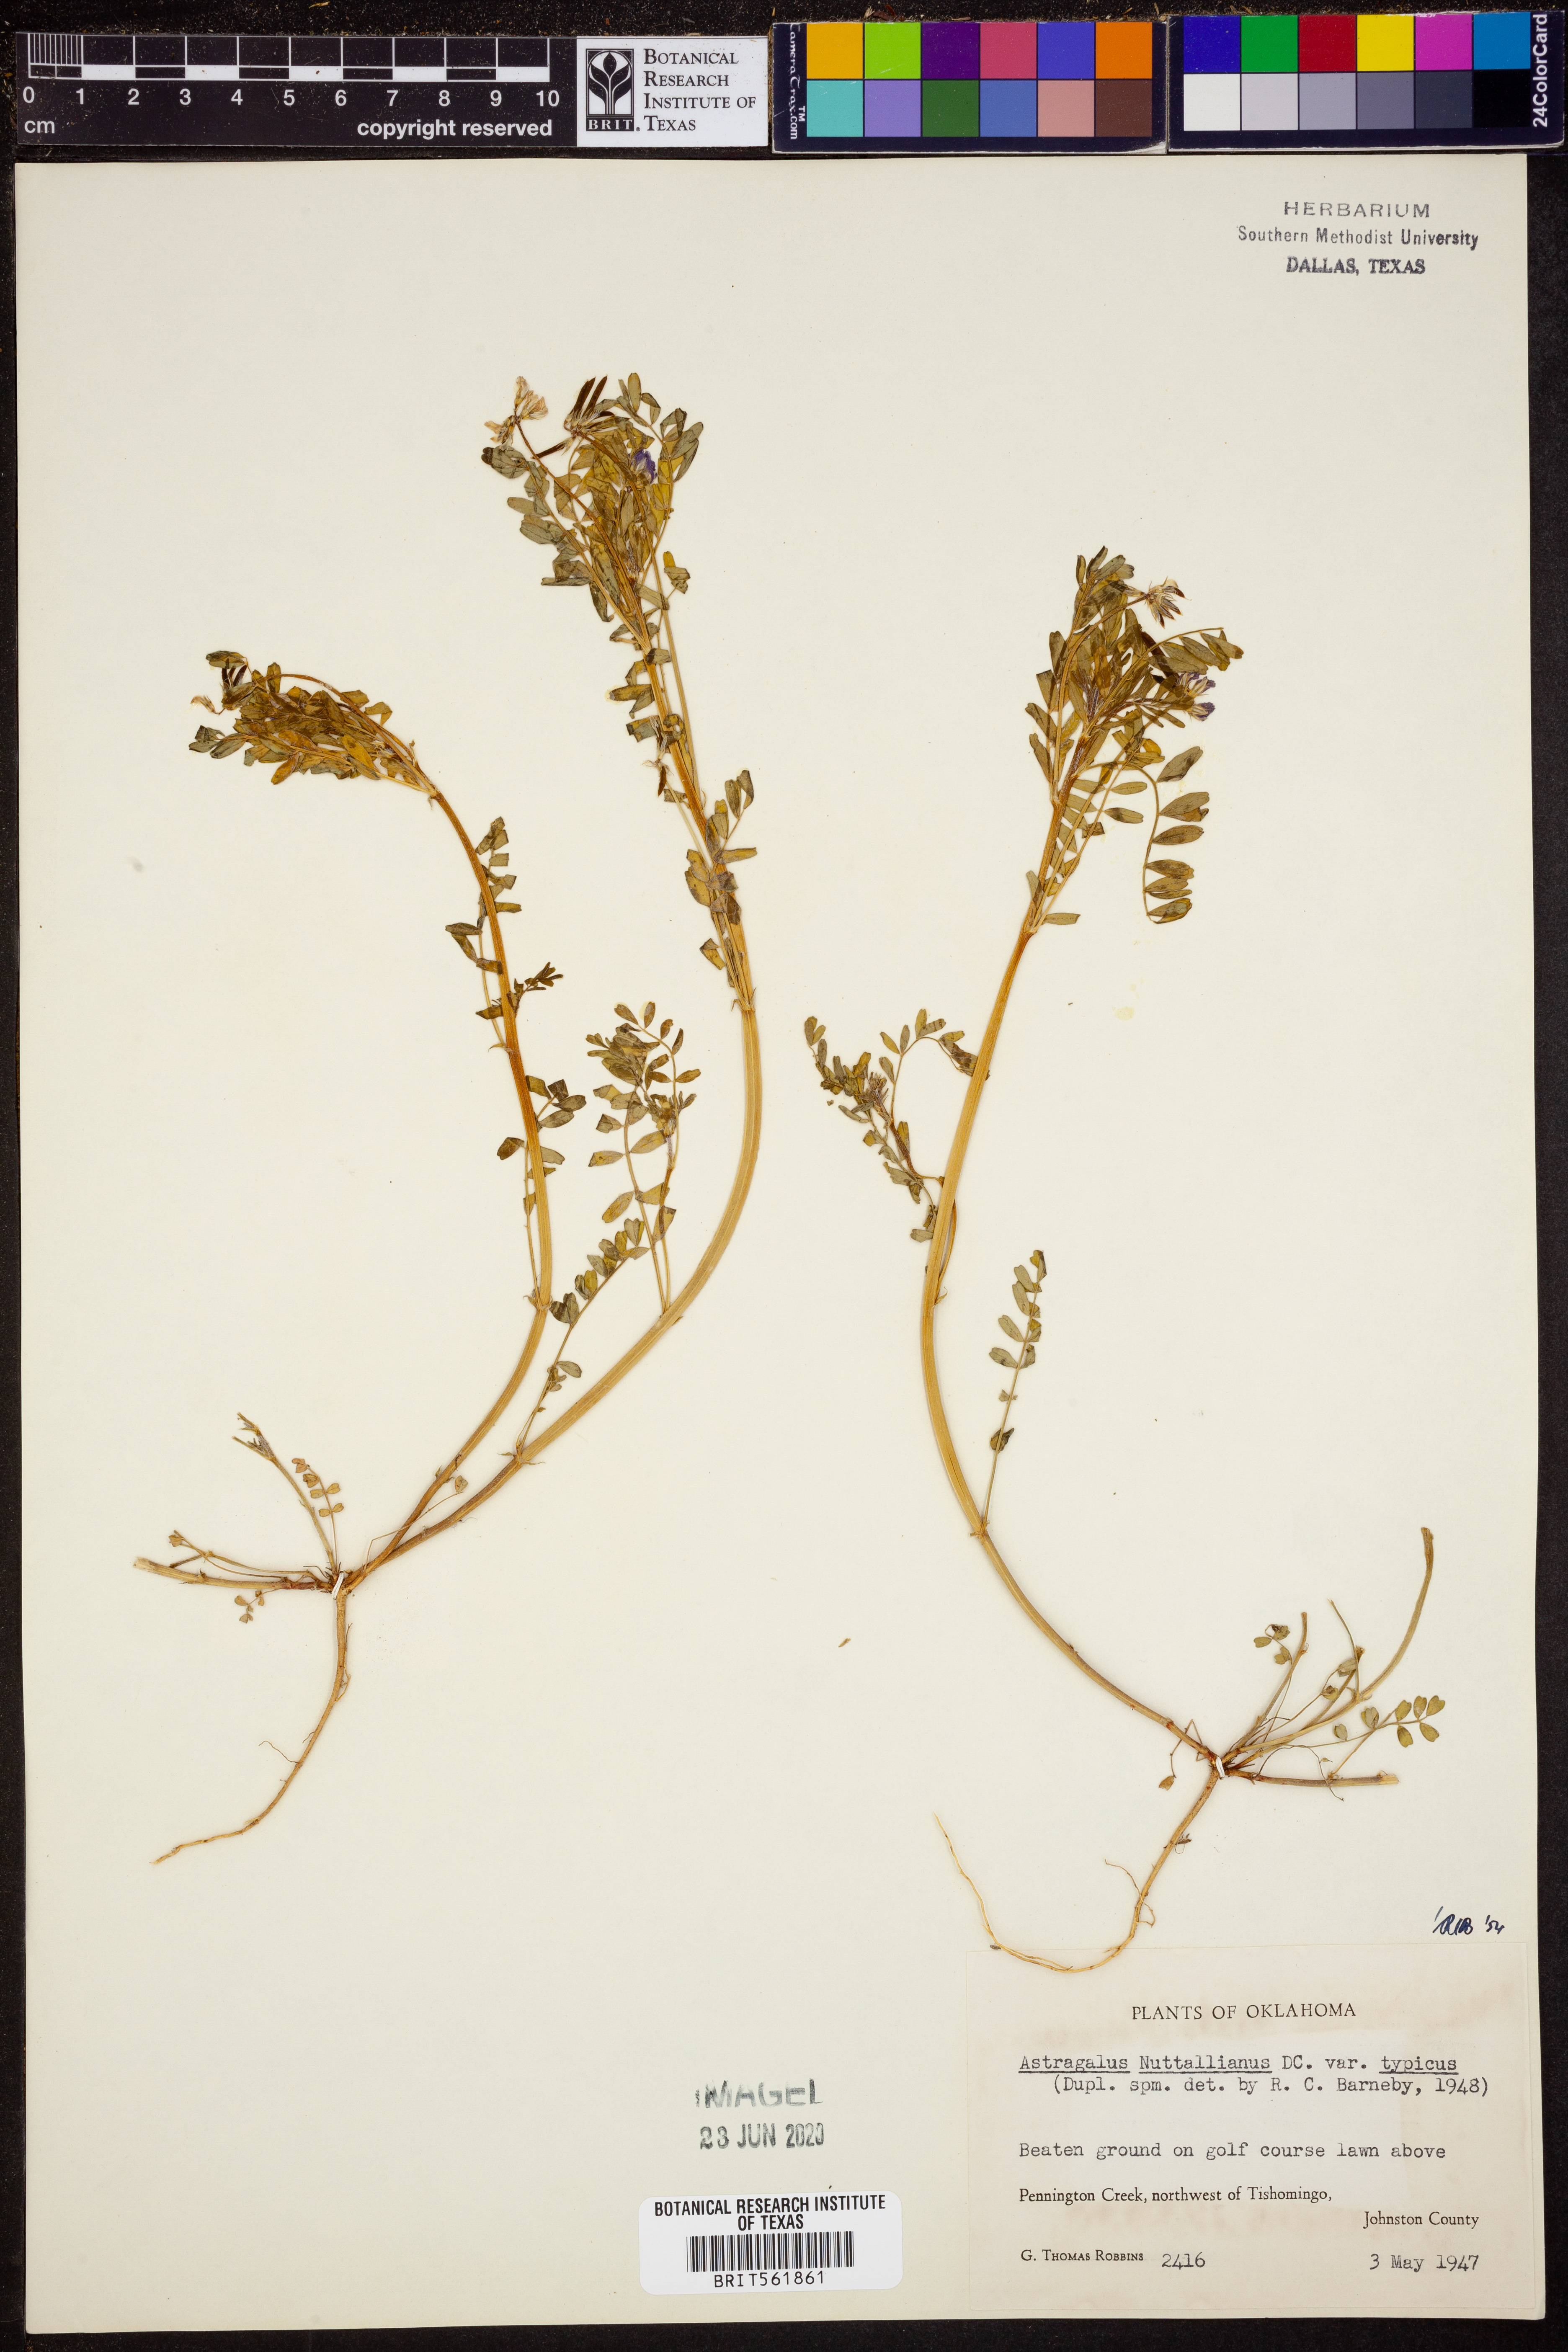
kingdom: Plantae
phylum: Tracheophyta
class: Magnoliopsida
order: Fabales
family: Fabaceae
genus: Astragalus
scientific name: Astragalus nuttallianus
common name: Smallflowered milkvetch
